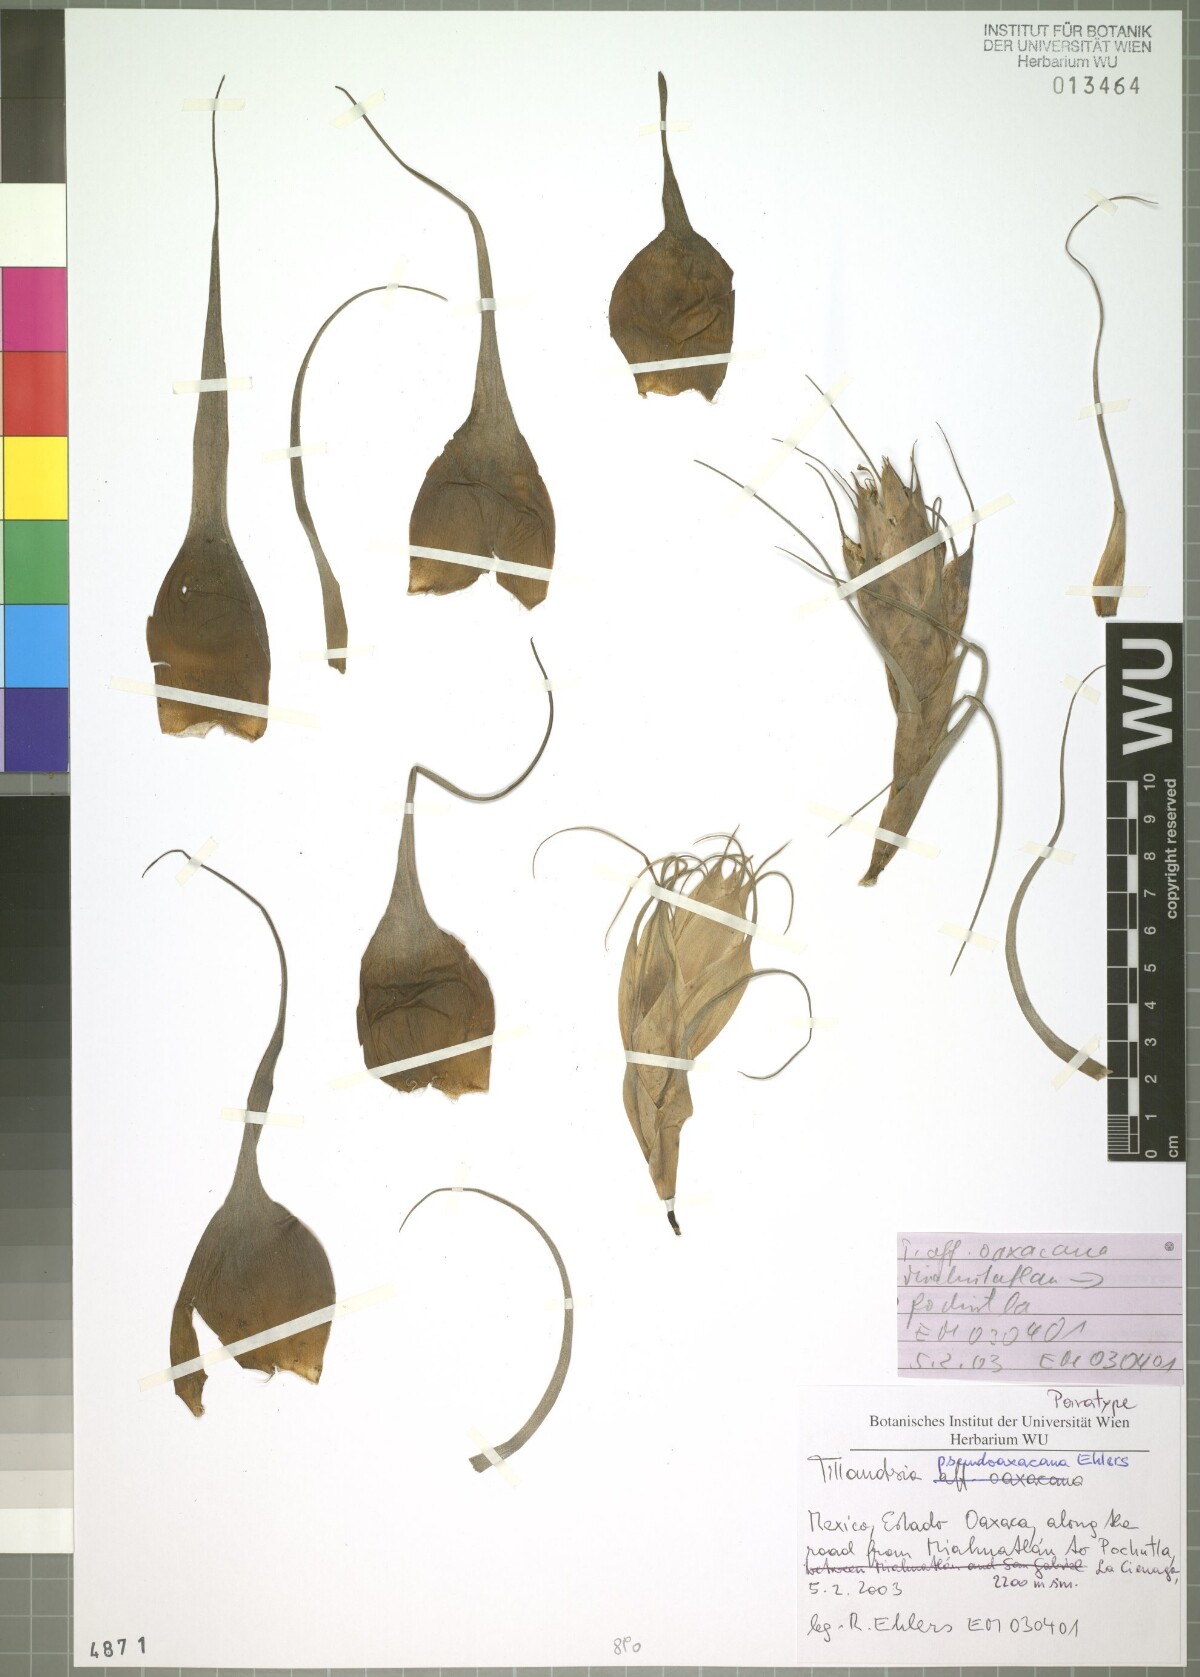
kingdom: Plantae
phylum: Tracheophyta
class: Liliopsida
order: Poales
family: Bromeliaceae
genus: Tillandsia
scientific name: Tillandsia pseudooaxacana
